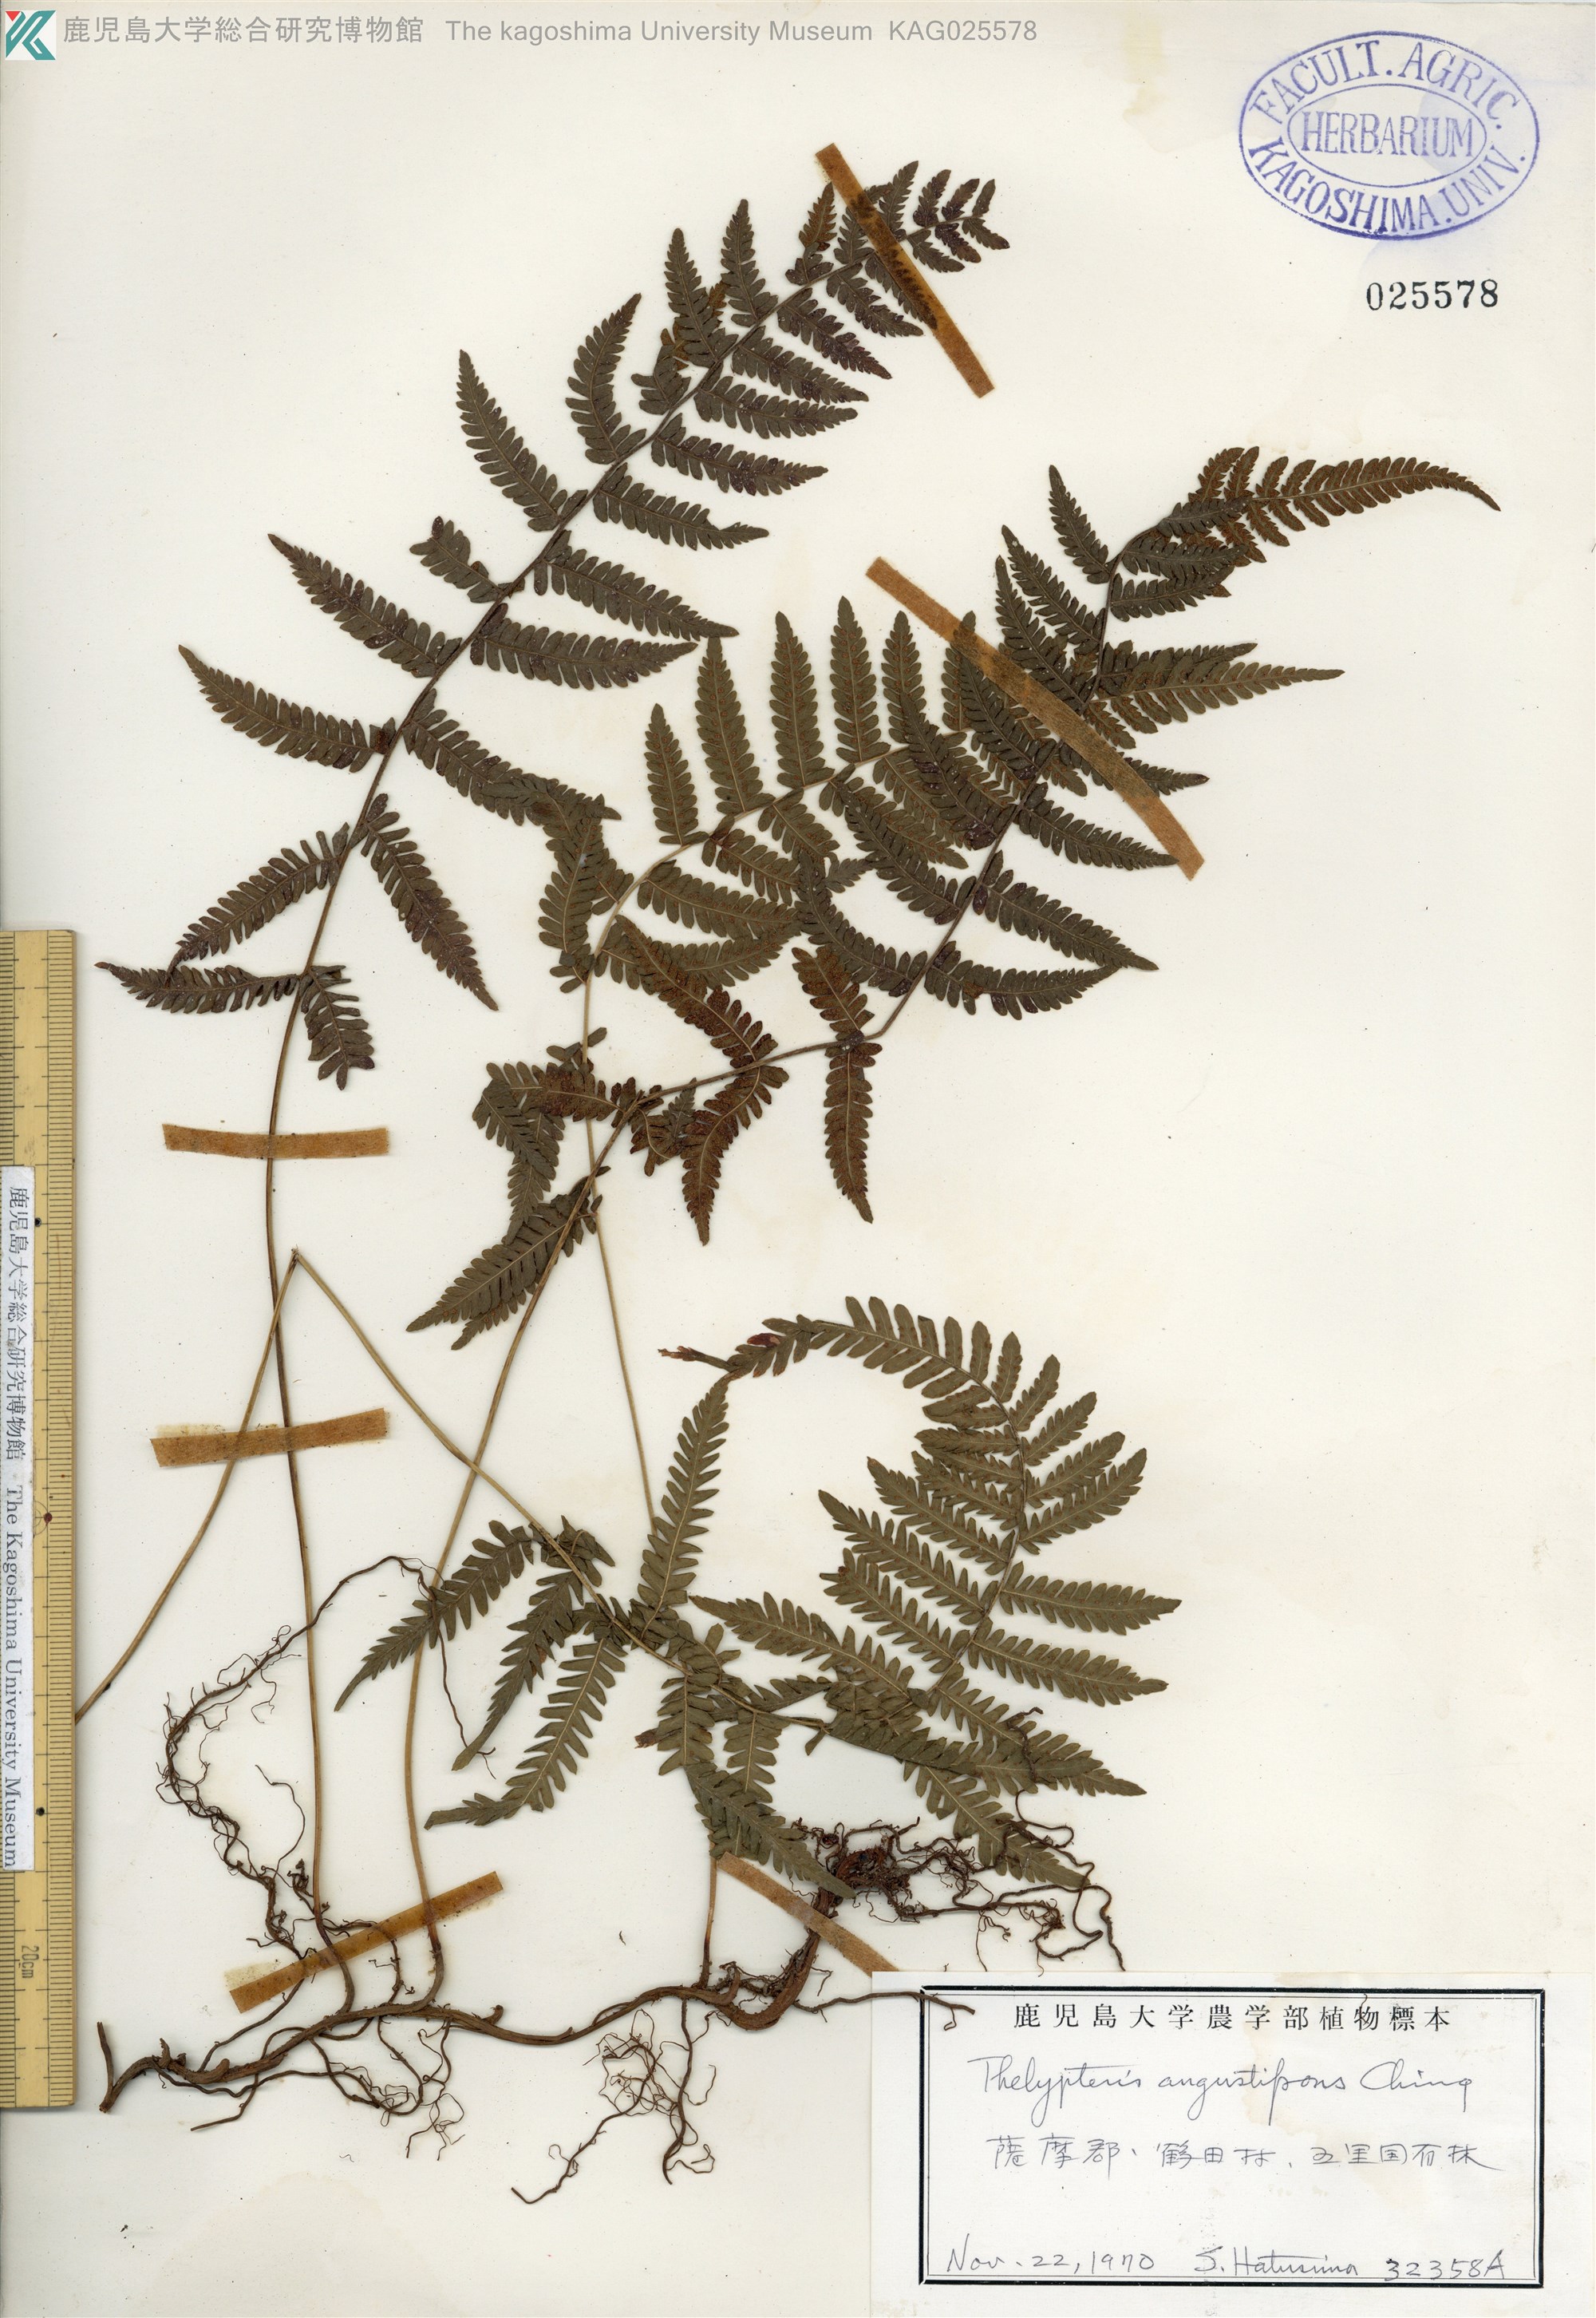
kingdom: Plantae
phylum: Tracheophyta
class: Polypodiopsida
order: Polypodiales
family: Thelypteridaceae
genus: Amauropelta
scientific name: Amauropelta glanduligera
